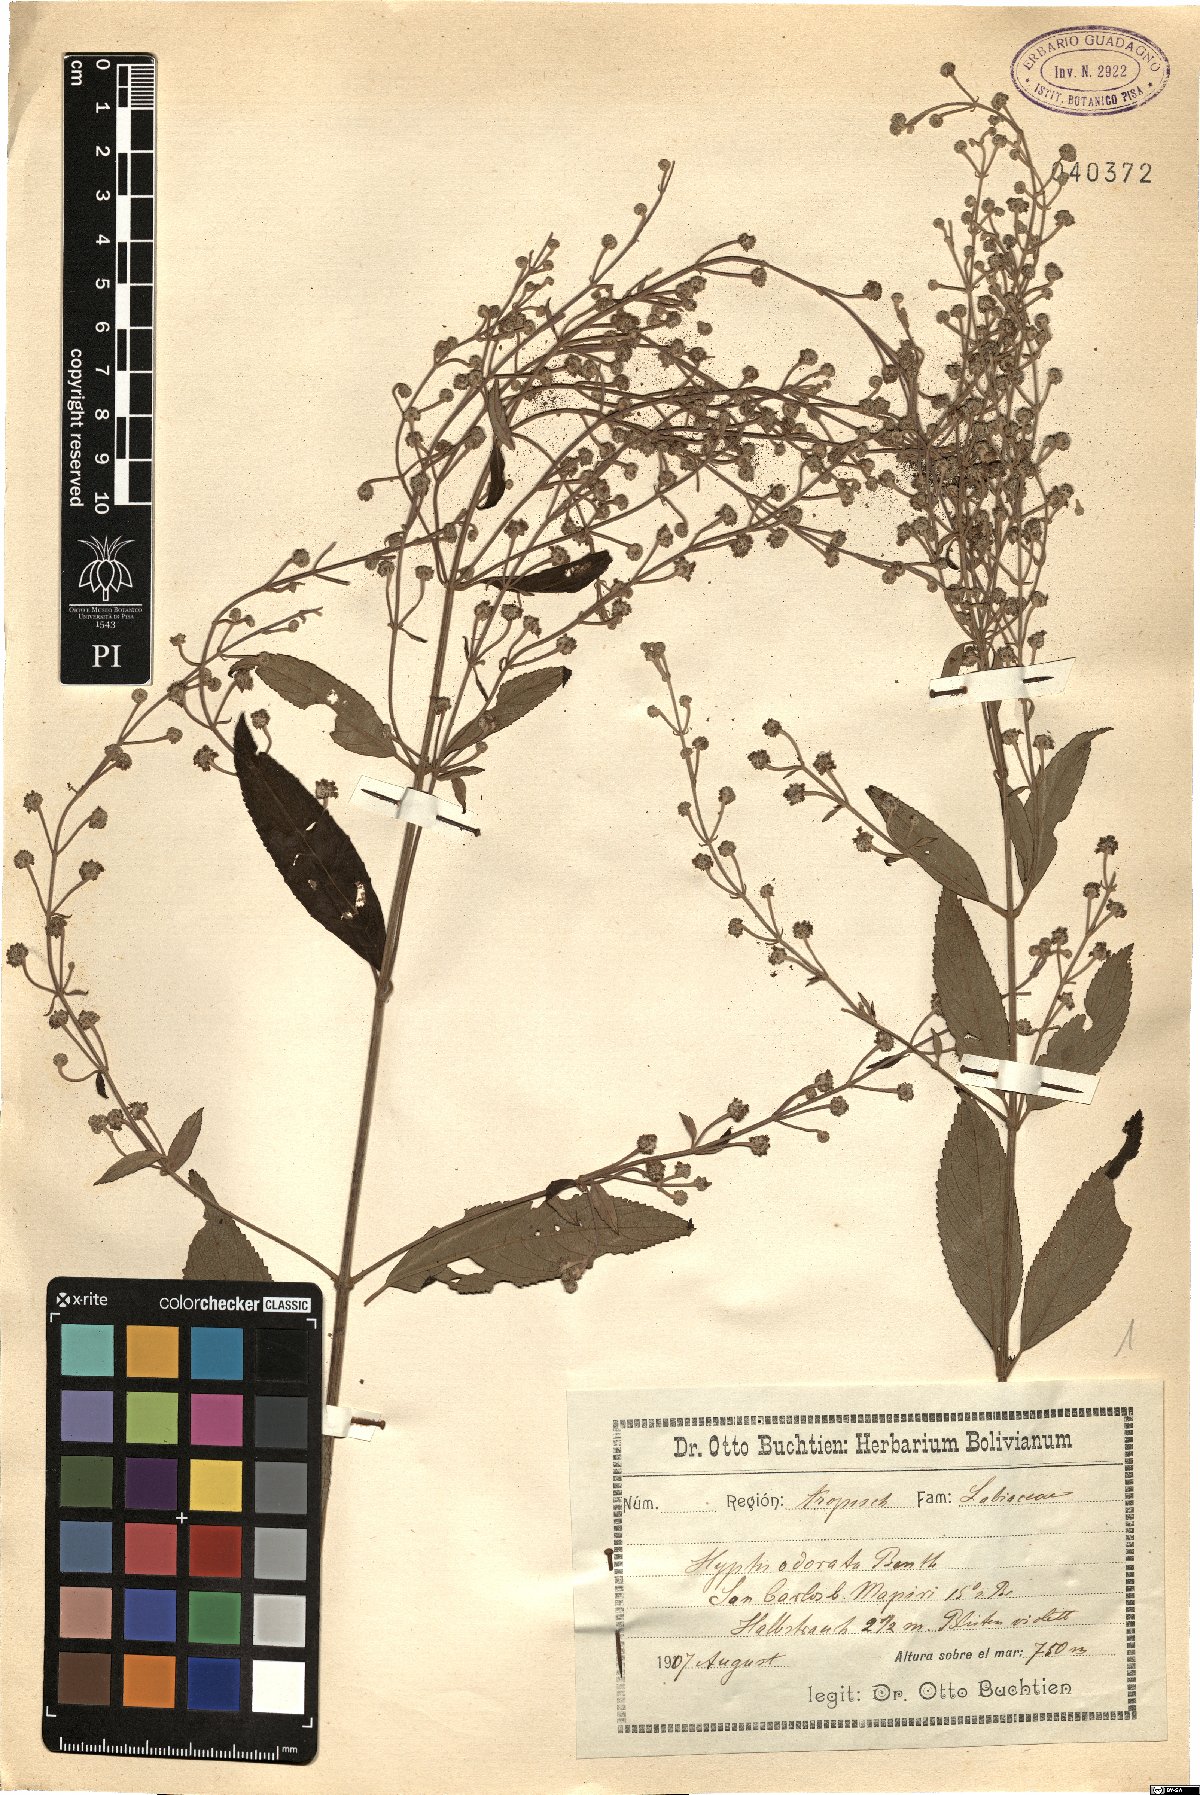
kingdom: Plantae
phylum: Tracheophyta
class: Magnoliopsida
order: Lamiales
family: Lamiaceae
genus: Hyptis
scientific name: Hyptis odorata
